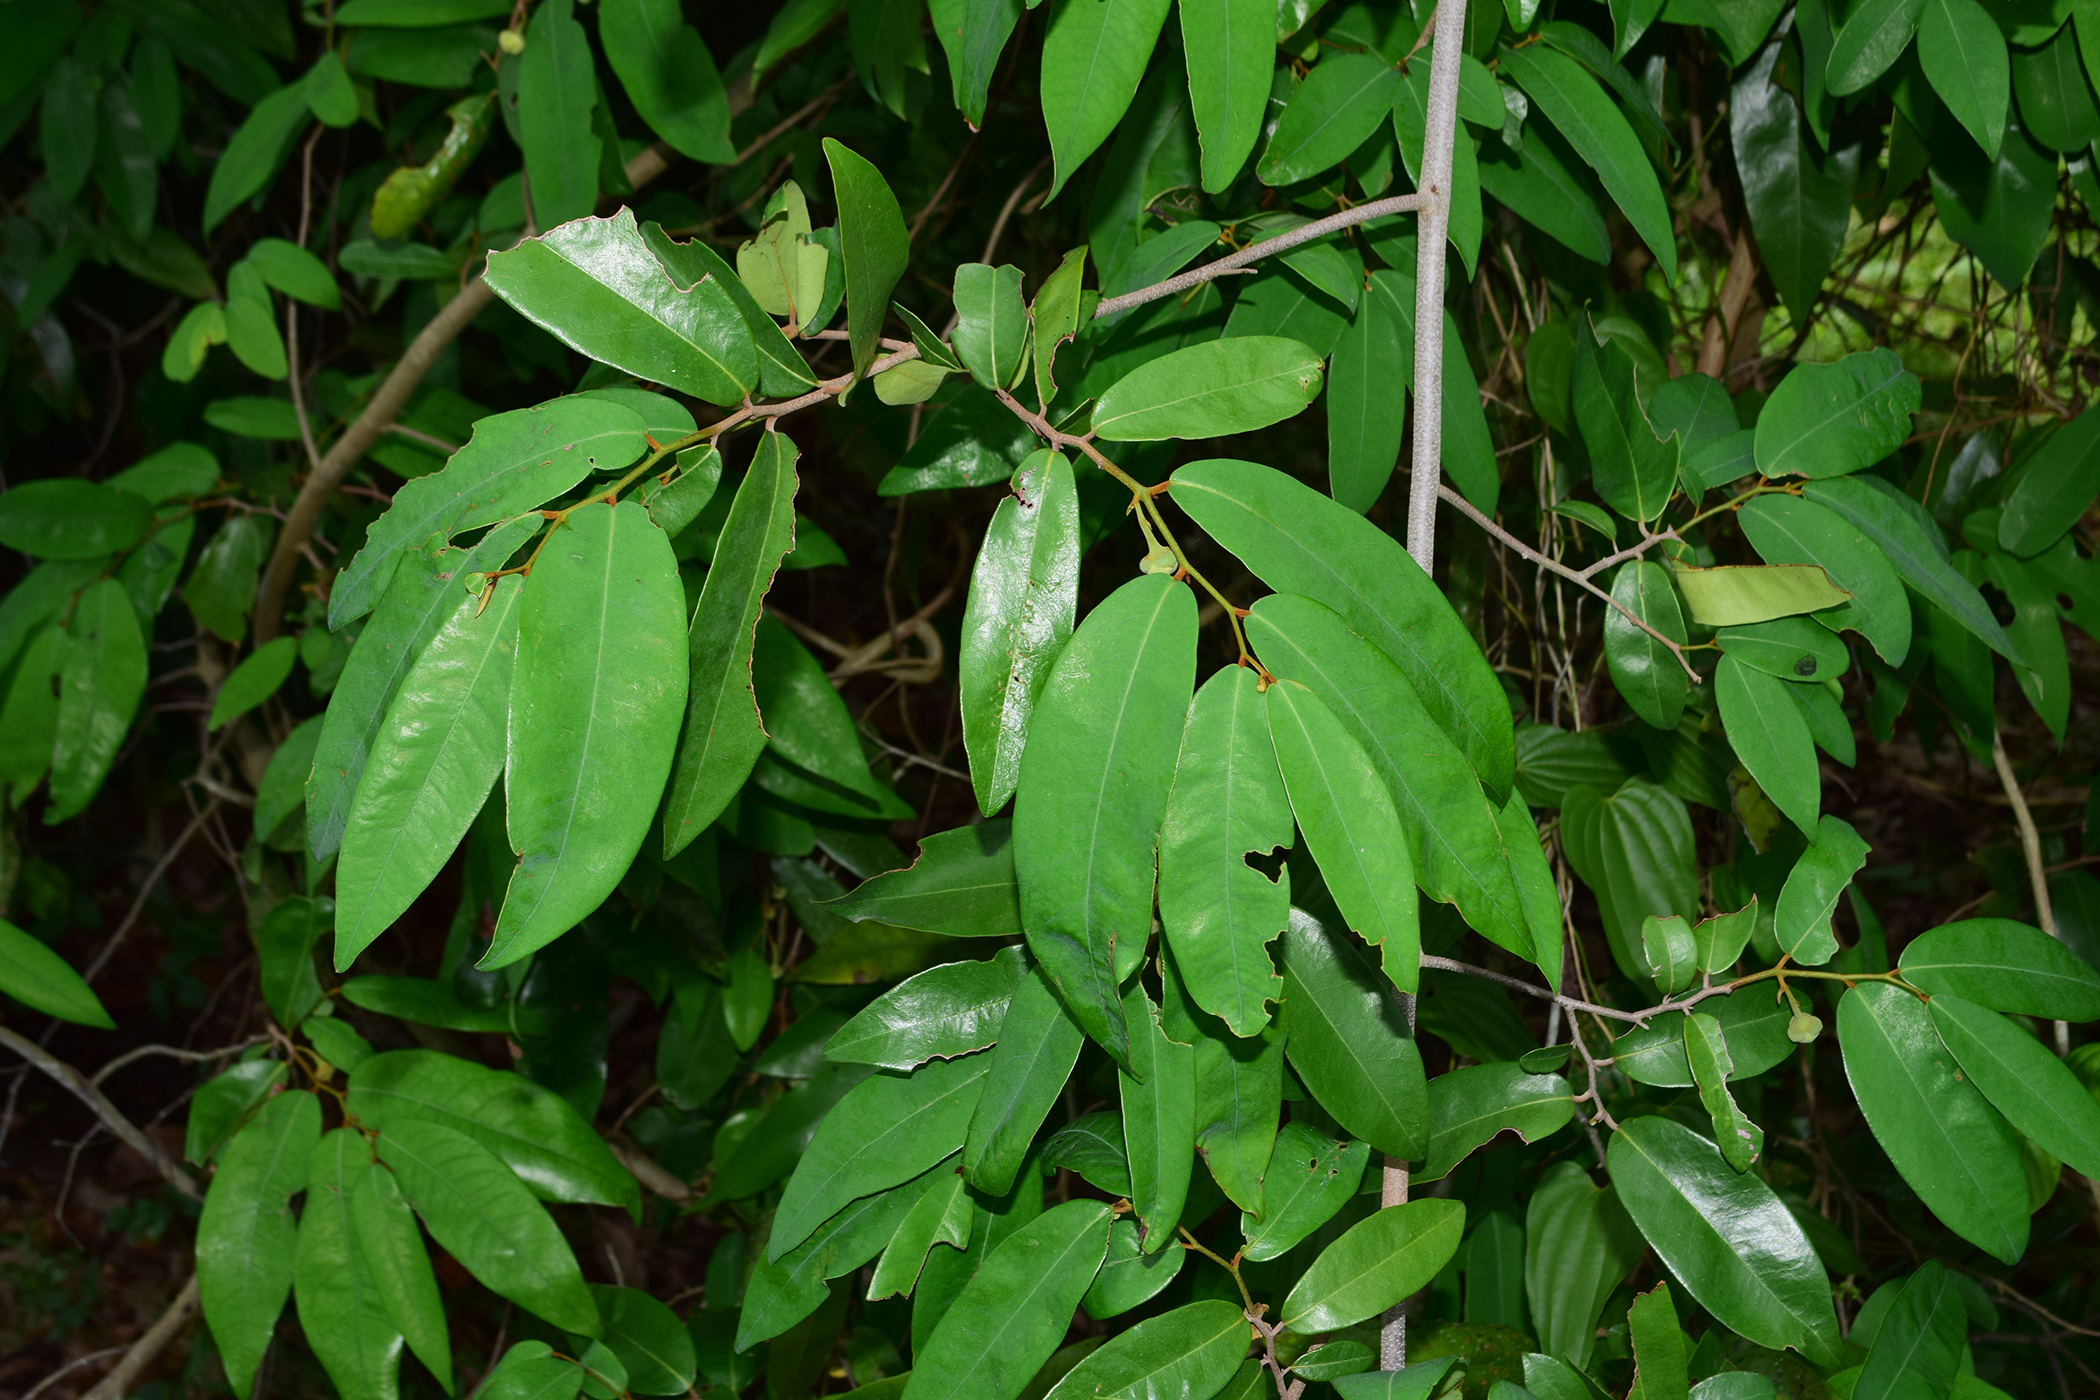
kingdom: Plantae
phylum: Tracheophyta
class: Magnoliopsida
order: Magnoliales
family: Annonaceae
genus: Uvaria
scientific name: Uvaria siamensis
